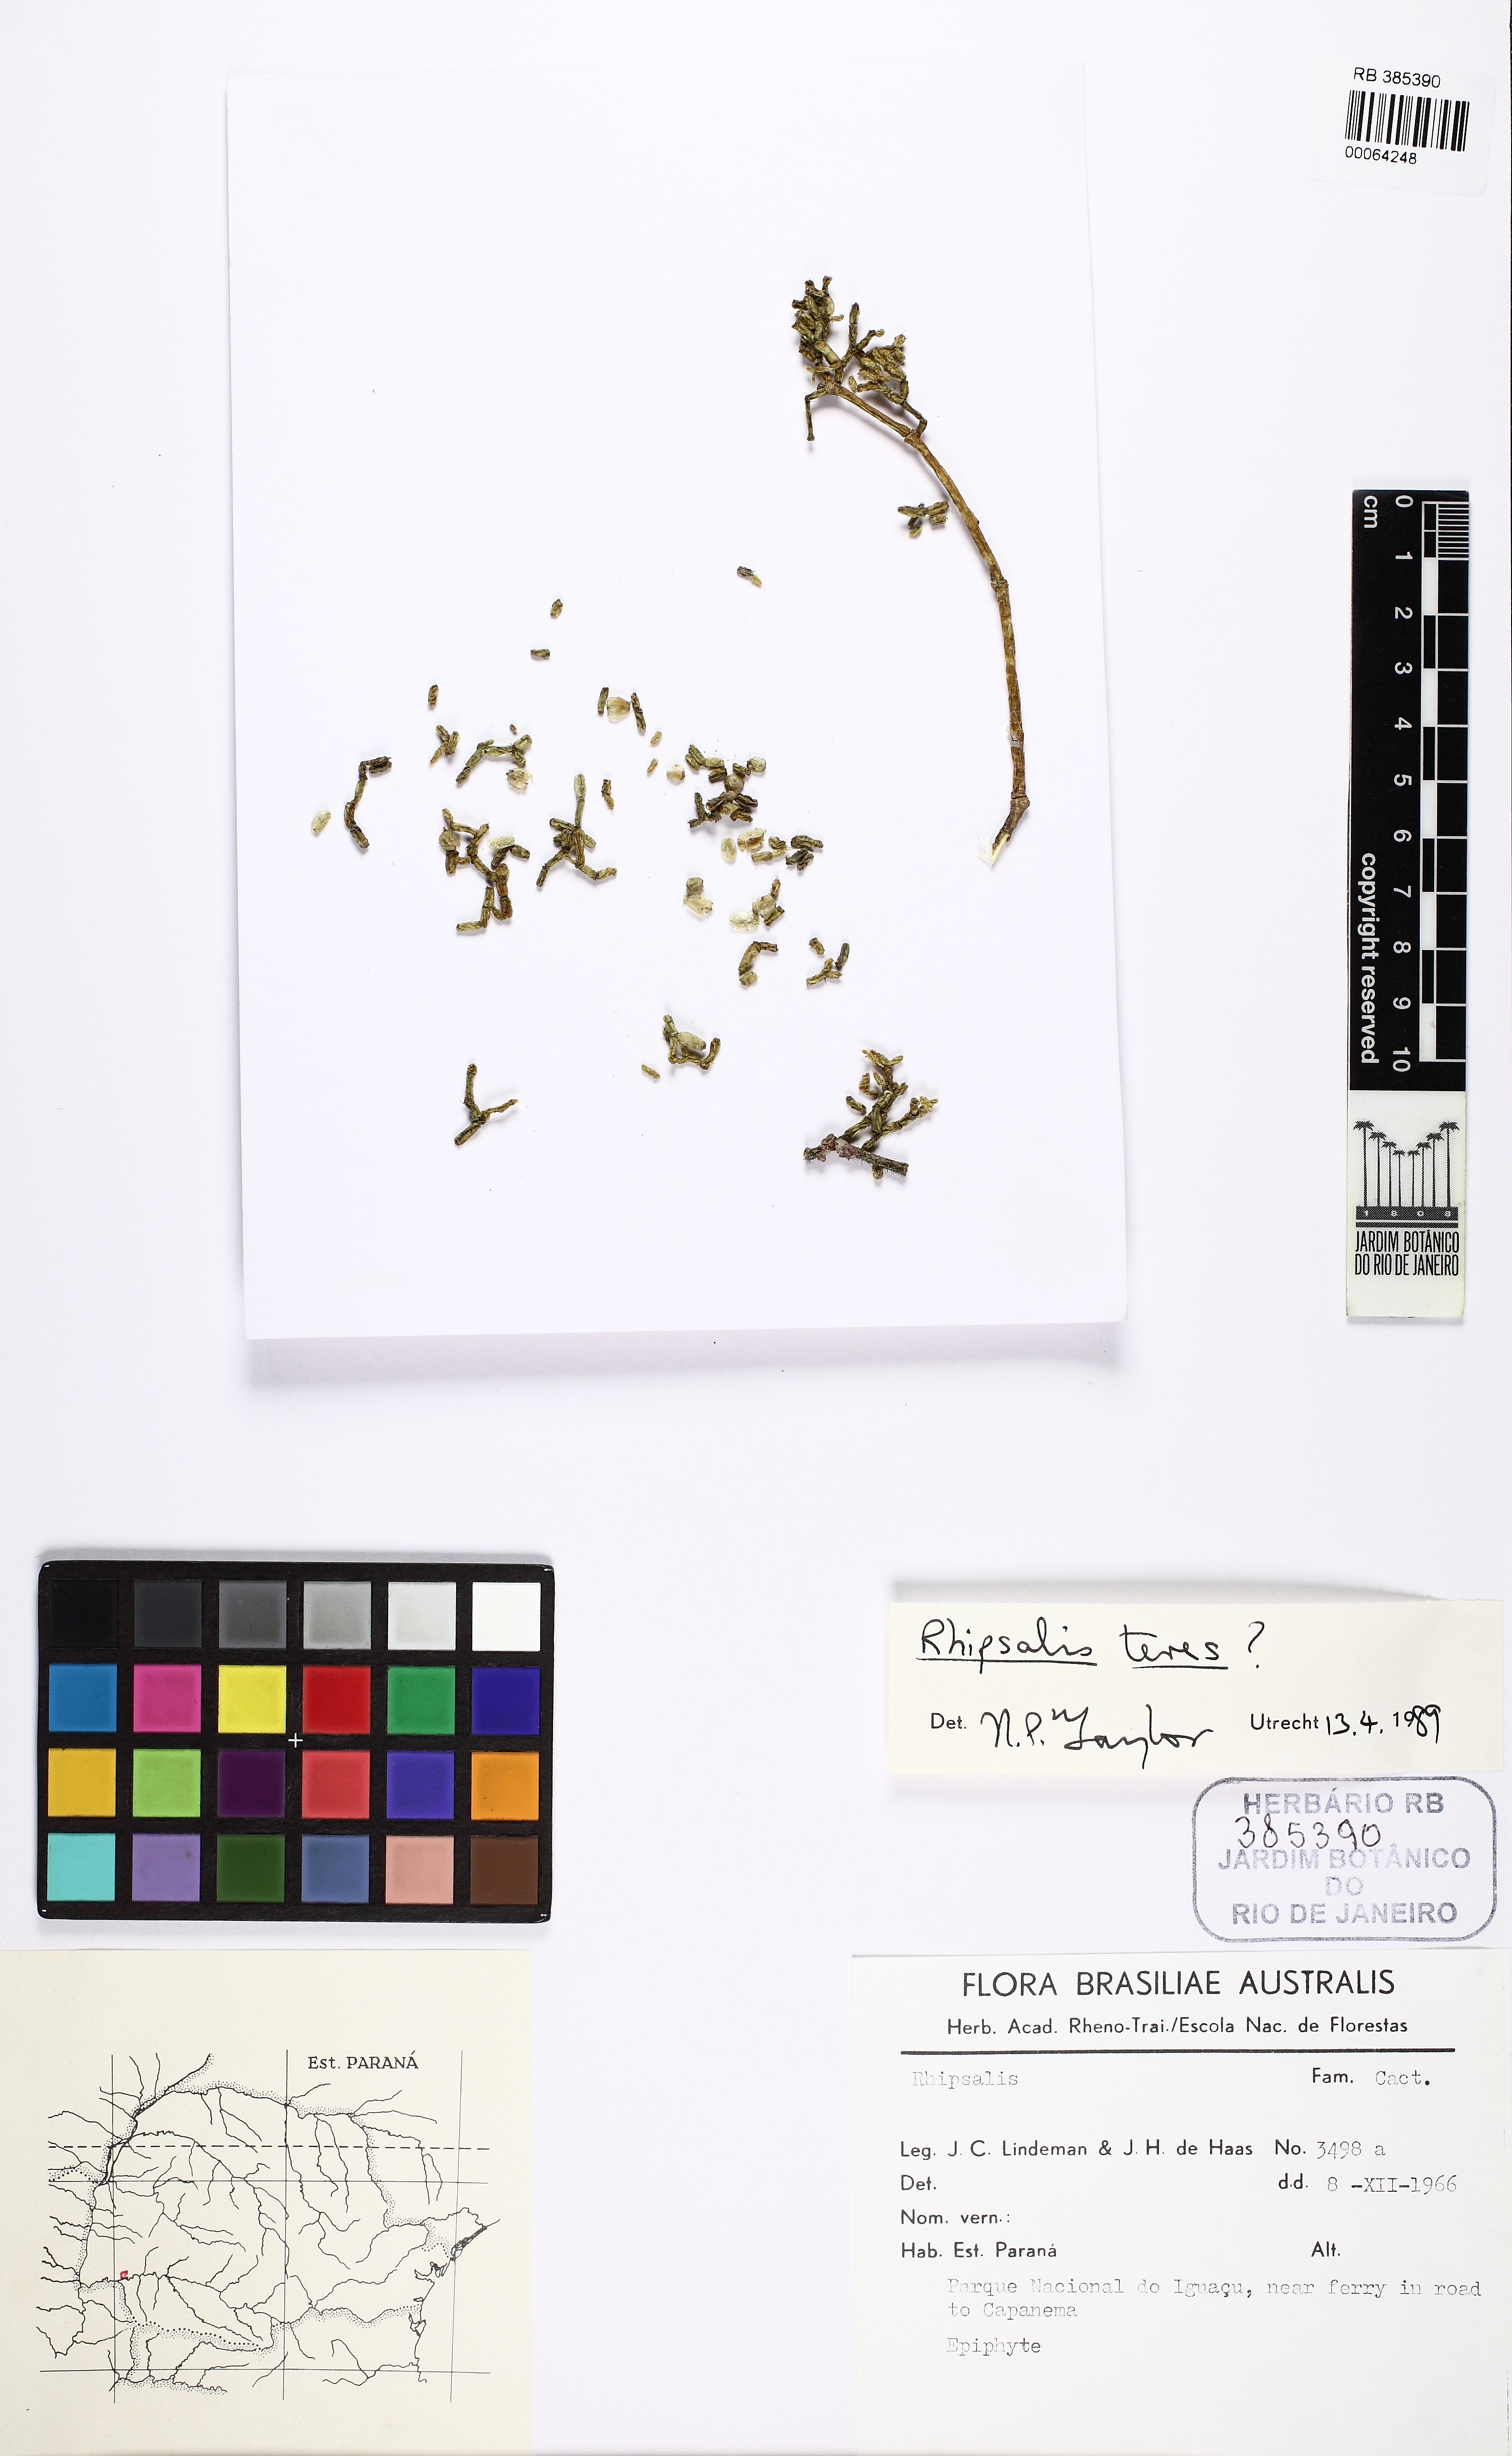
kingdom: Plantae
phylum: Tracheophyta
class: Magnoliopsida
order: Caryophyllales
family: Cactaceae
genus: Rhipsalis
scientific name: Rhipsalis teres
